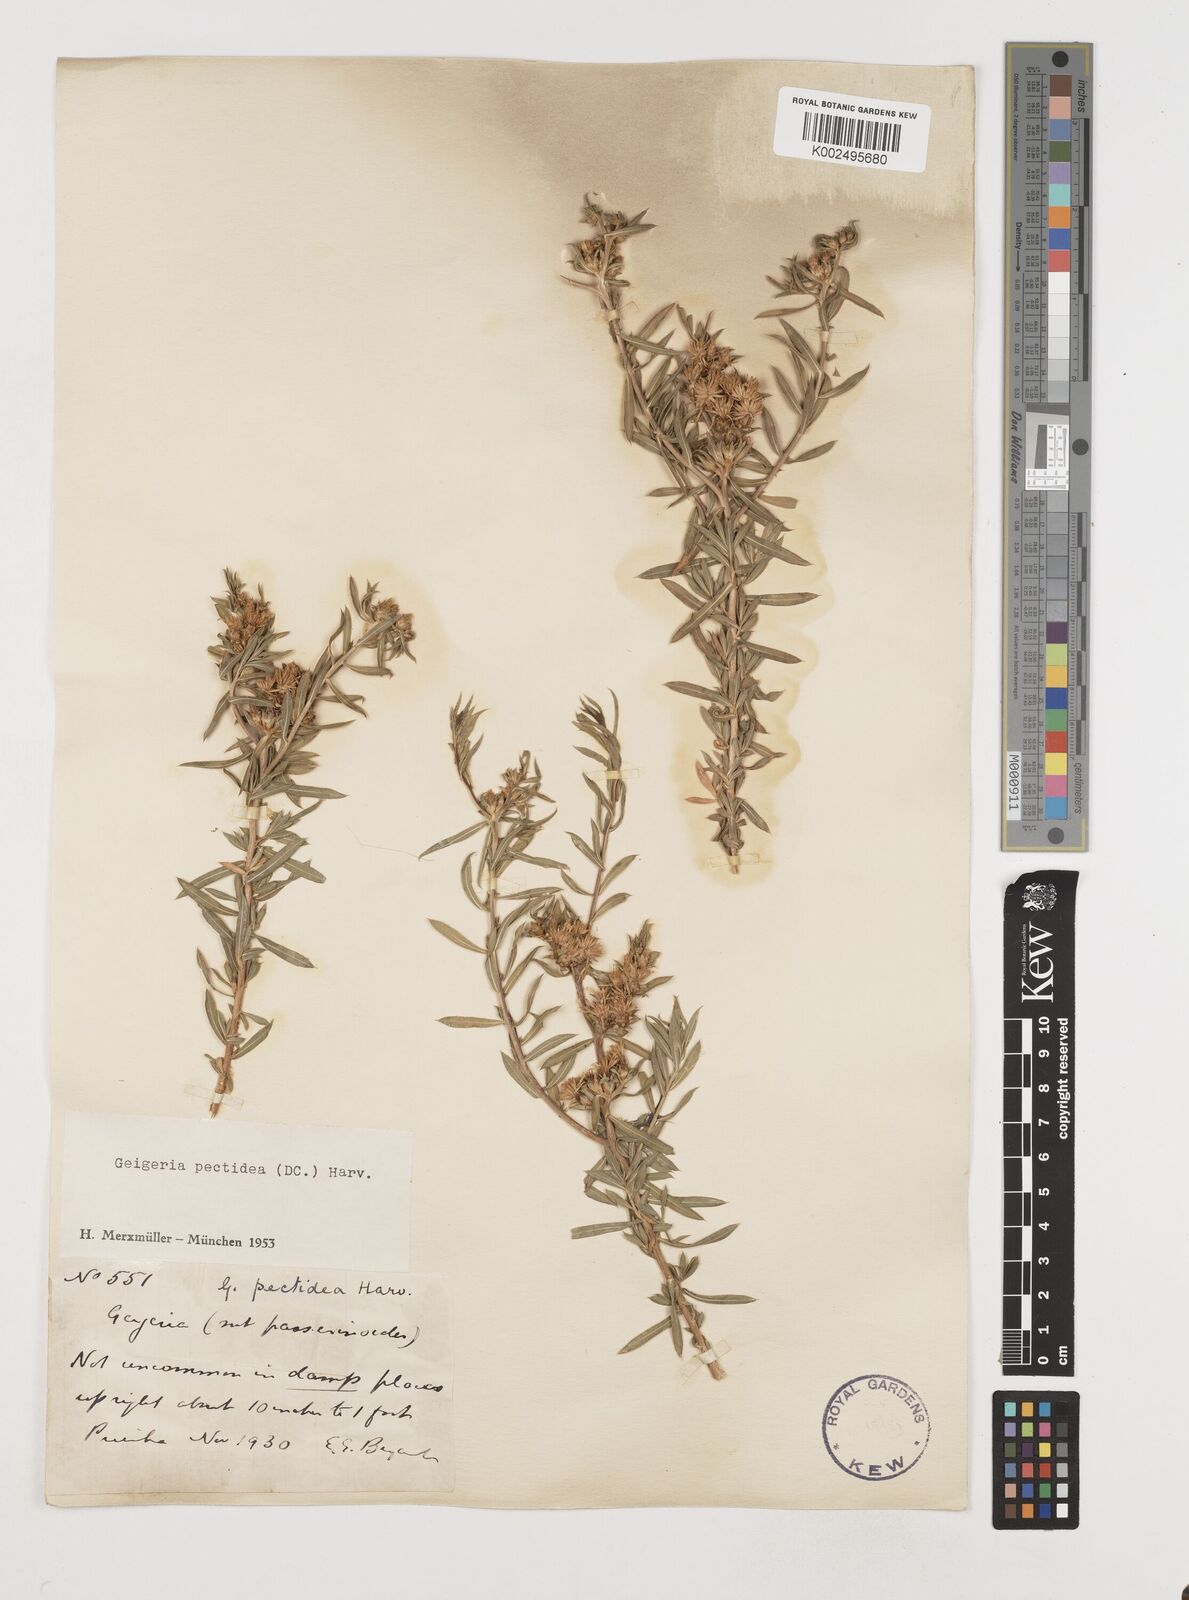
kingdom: Plantae
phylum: Tracheophyta
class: Magnoliopsida
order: Asterales
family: Asteraceae
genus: Geigeria
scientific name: Geigeria pectidea
